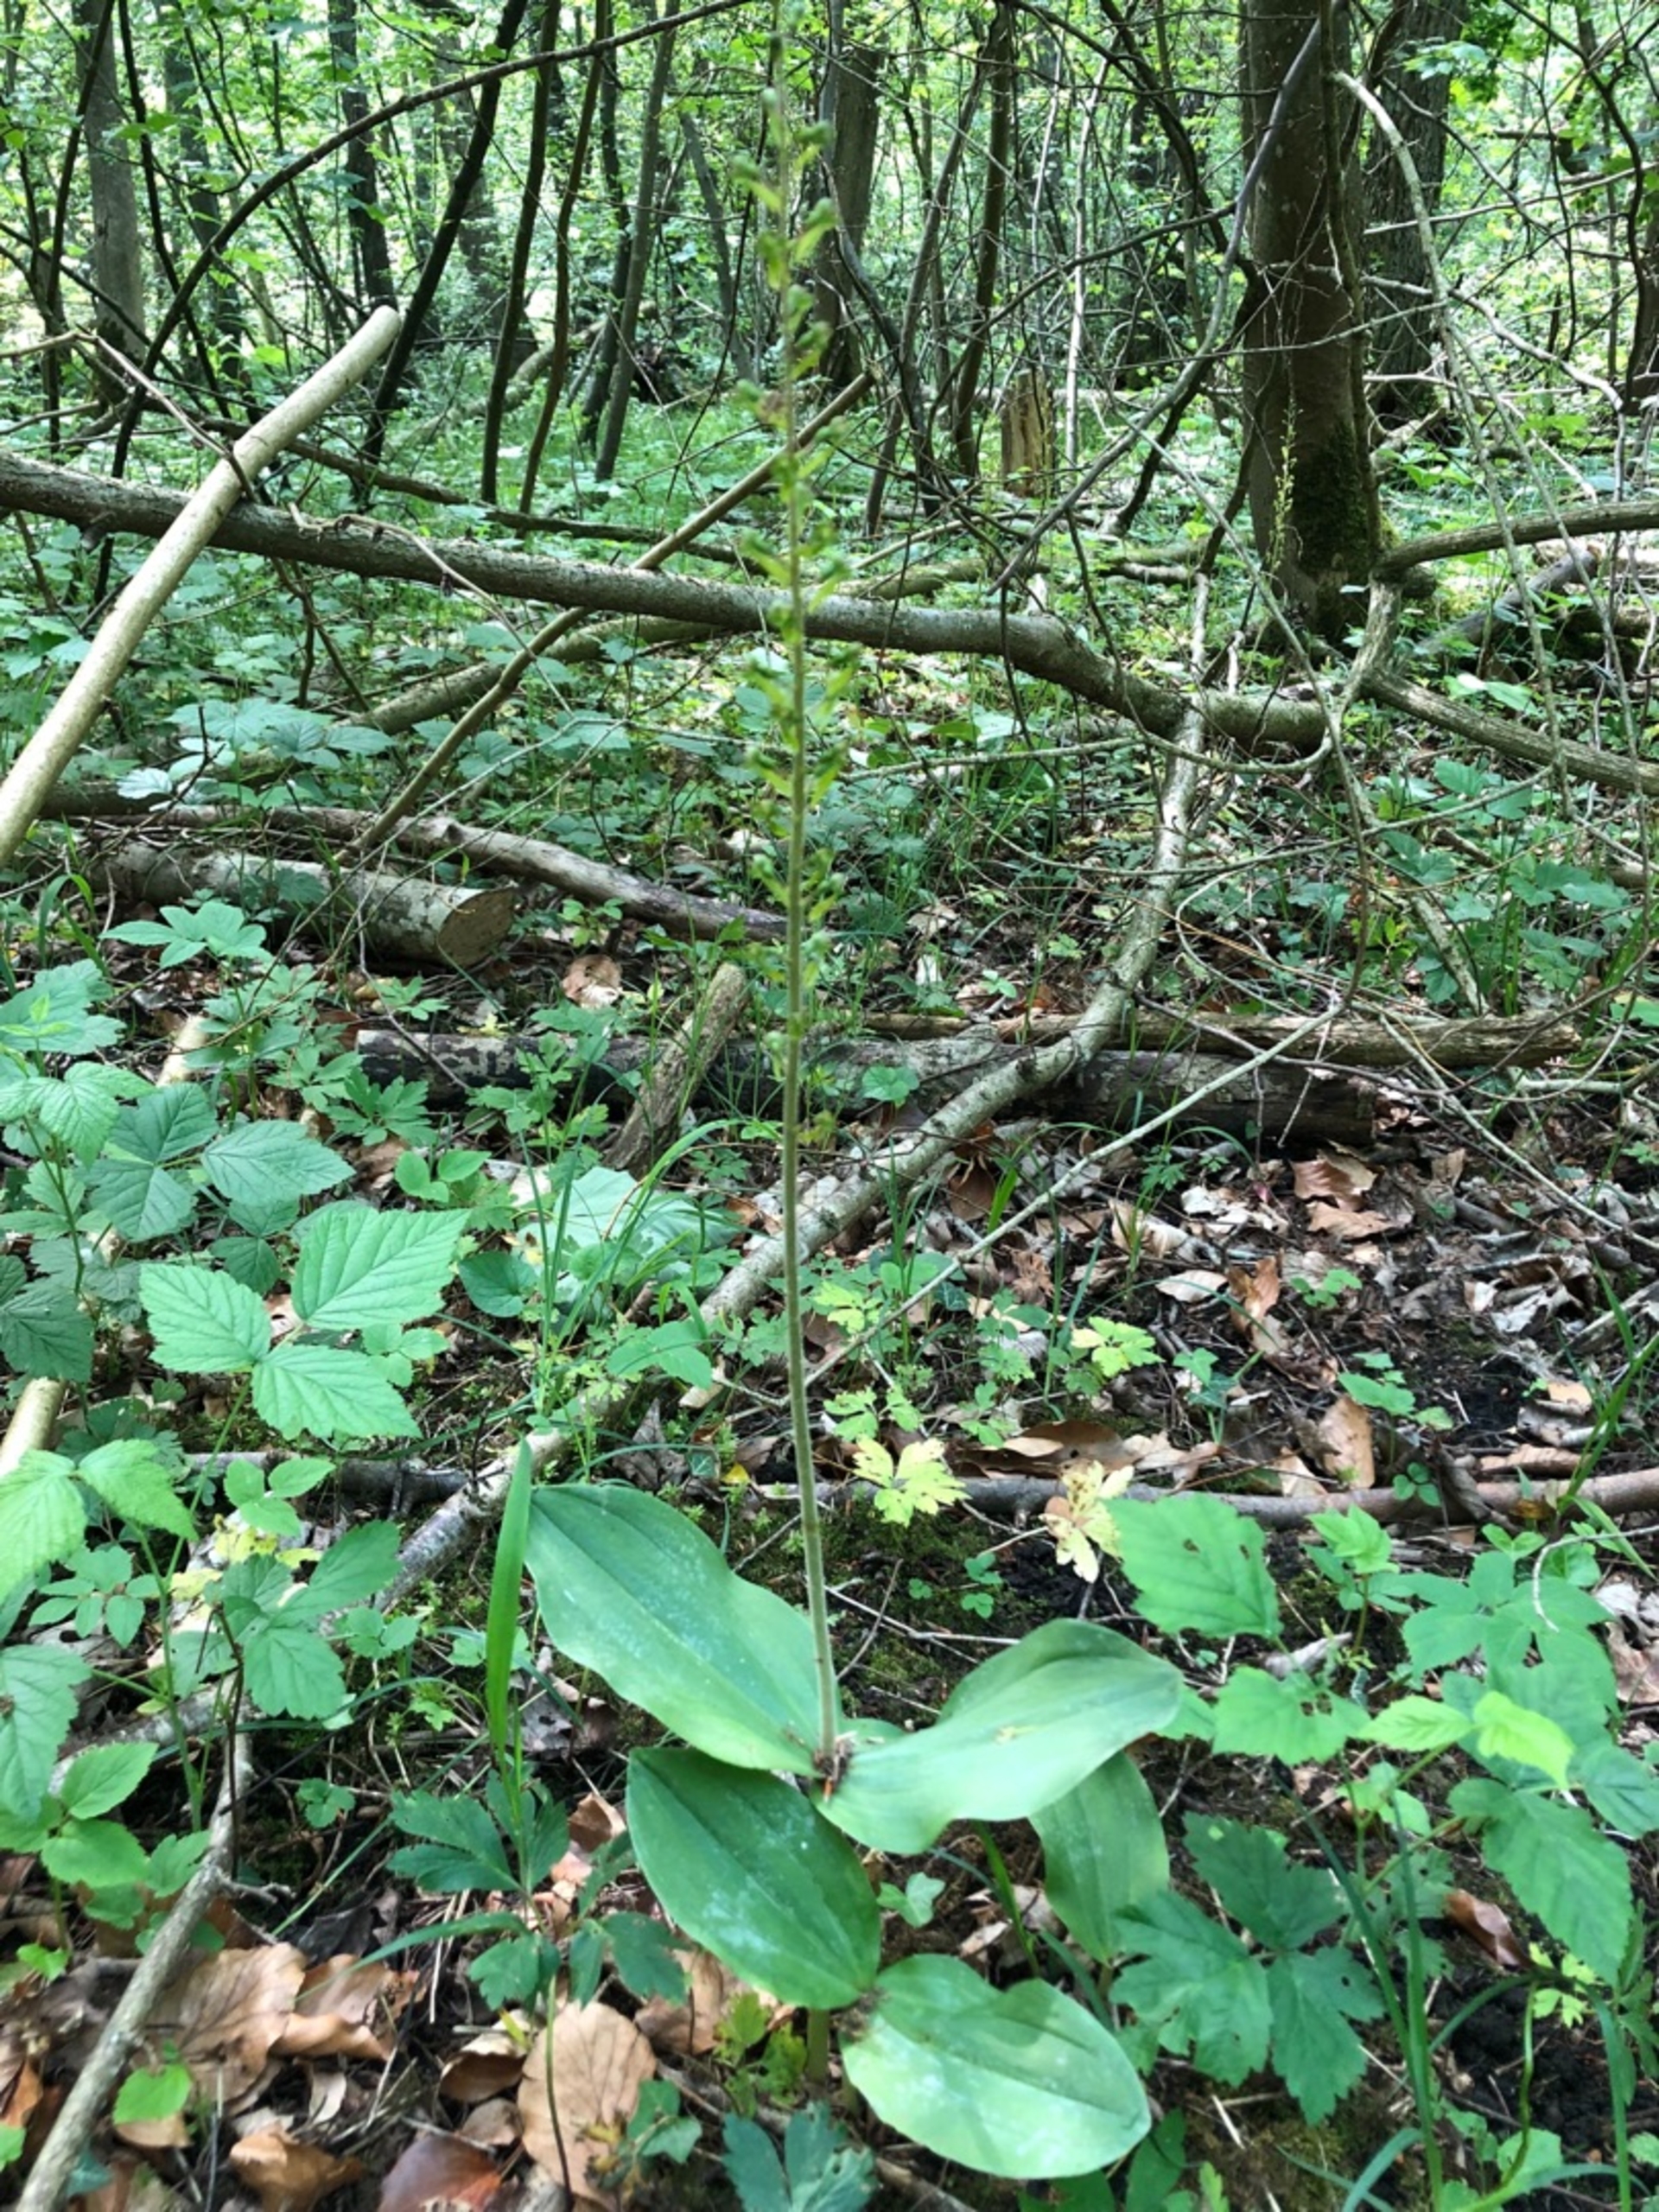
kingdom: Plantae
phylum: Tracheophyta
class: Liliopsida
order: Asparagales
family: Orchidaceae
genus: Neottia
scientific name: Neottia ovata
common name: Ægbladet fliglæbe
